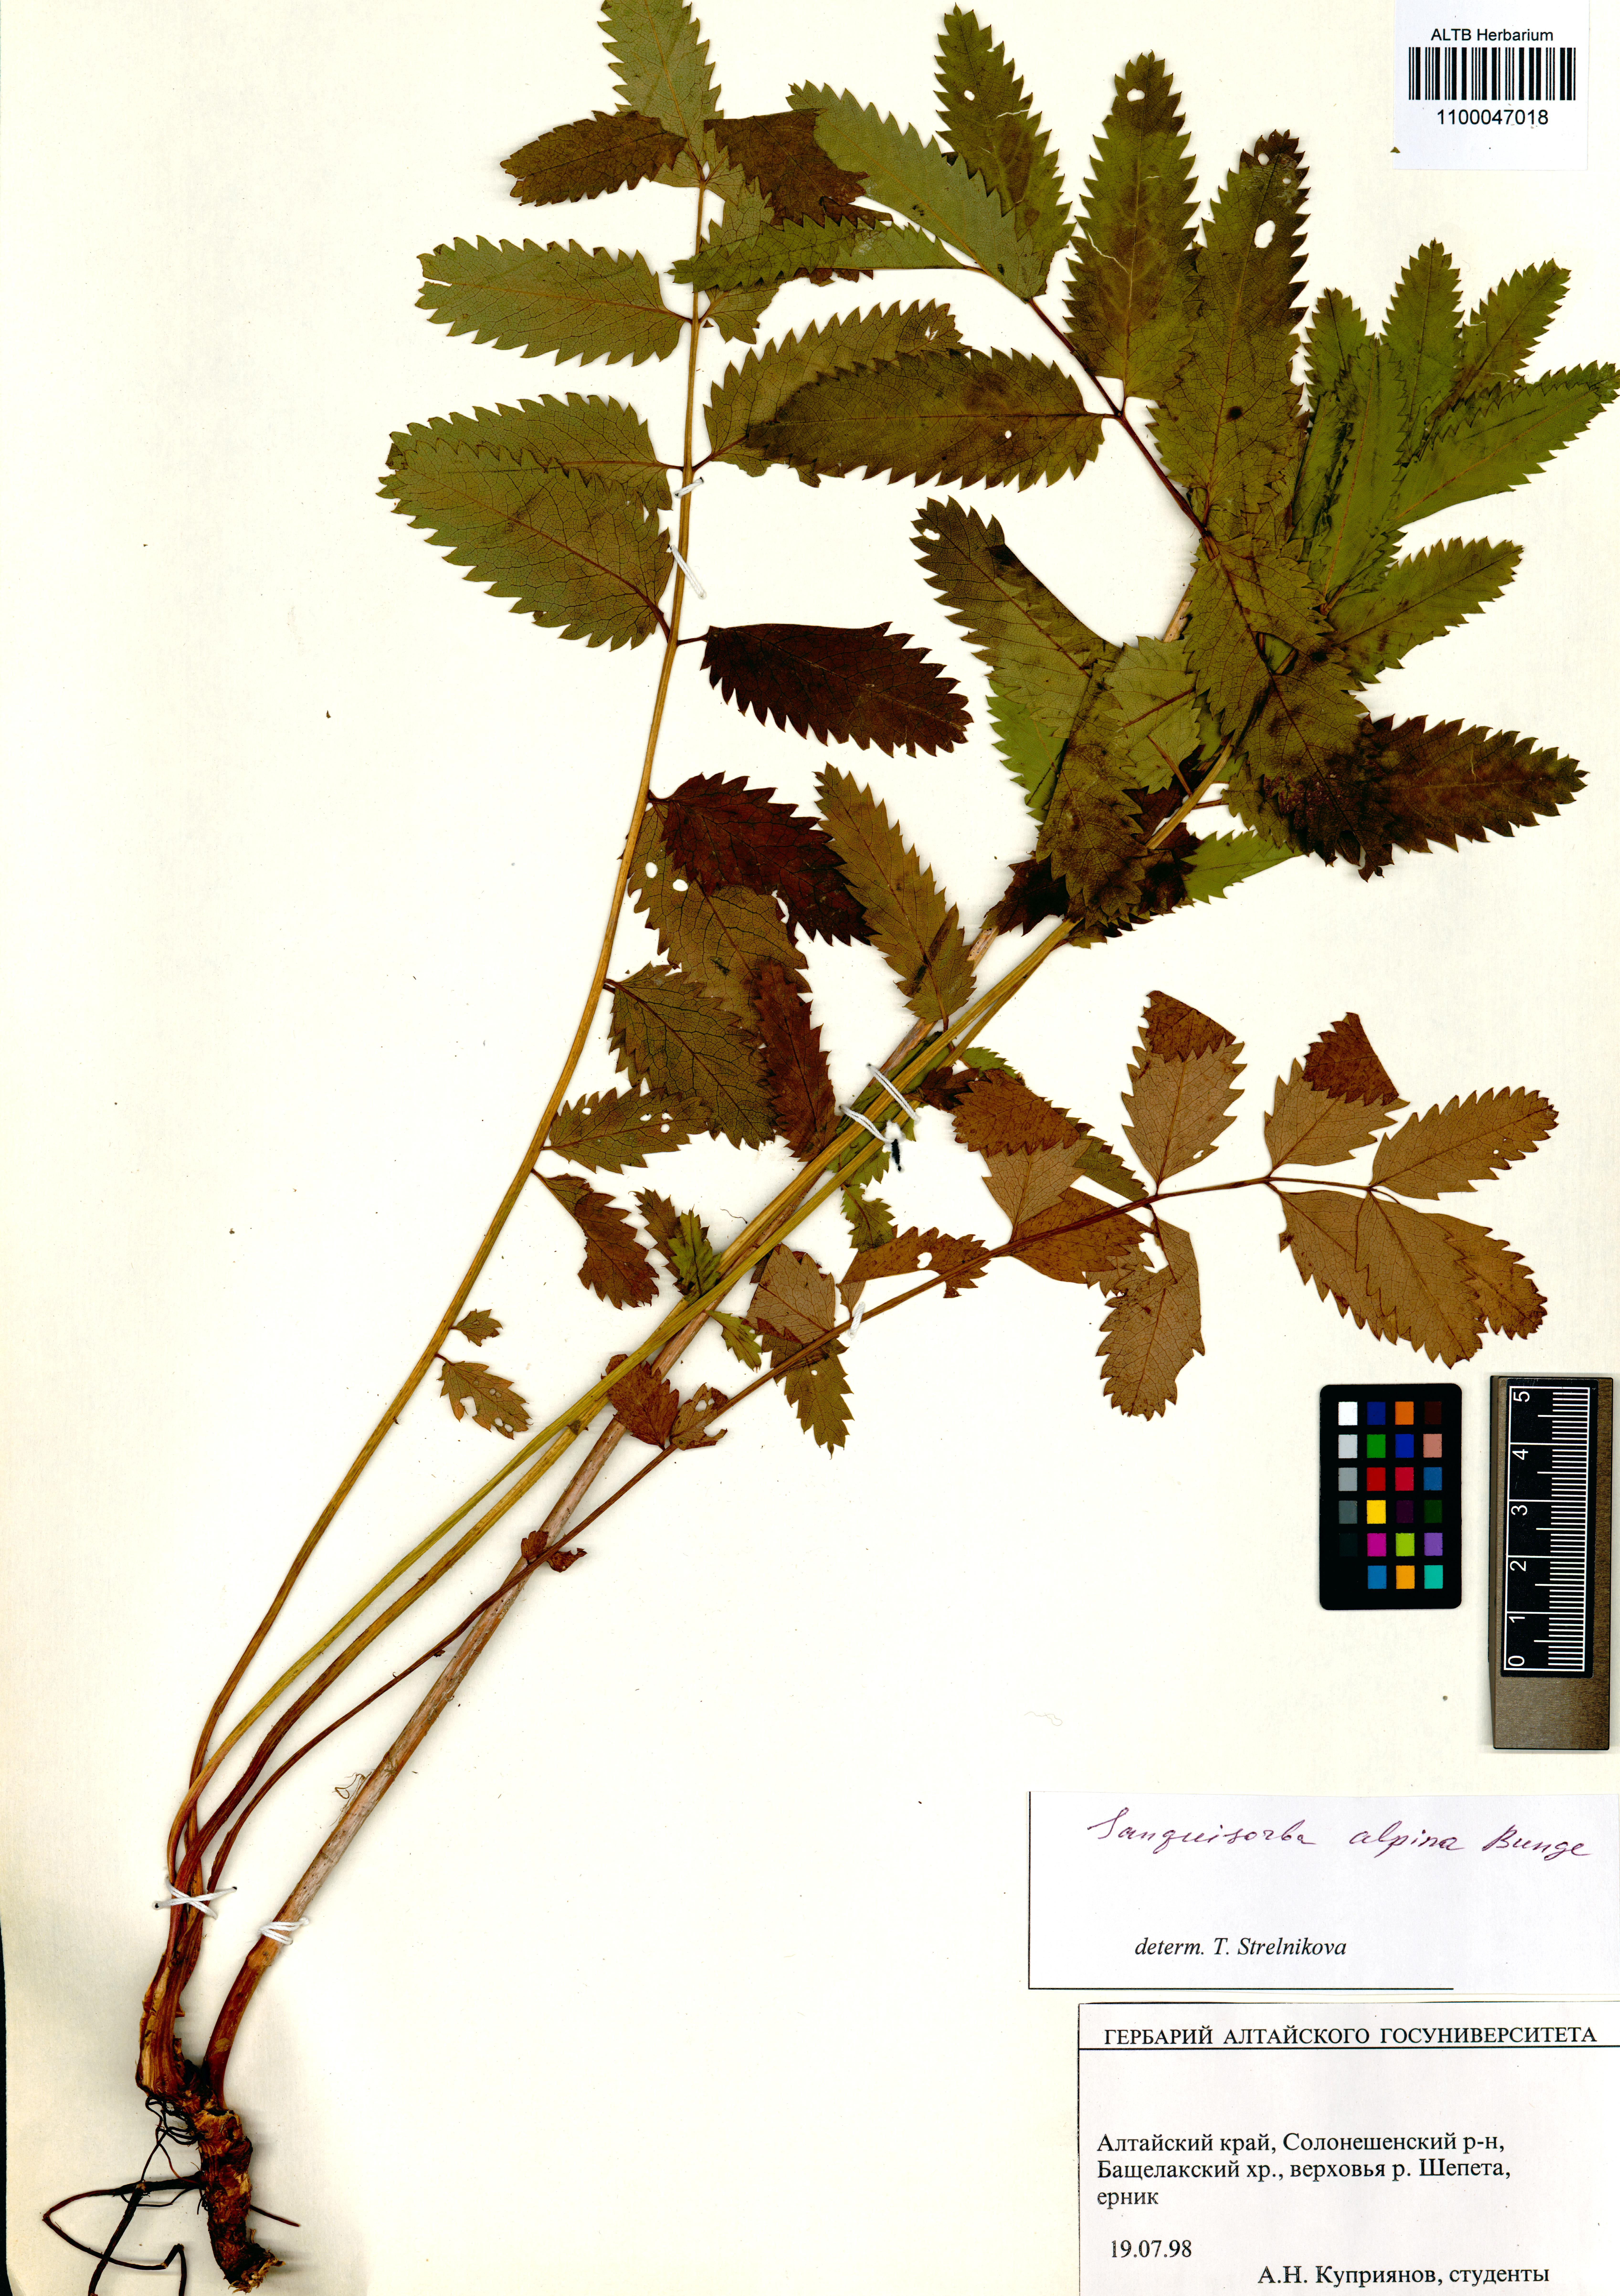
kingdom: Plantae
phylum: Tracheophyta
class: Magnoliopsida
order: Rosales
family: Rosaceae
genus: Sanguisorba
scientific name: Sanguisorba alpina
